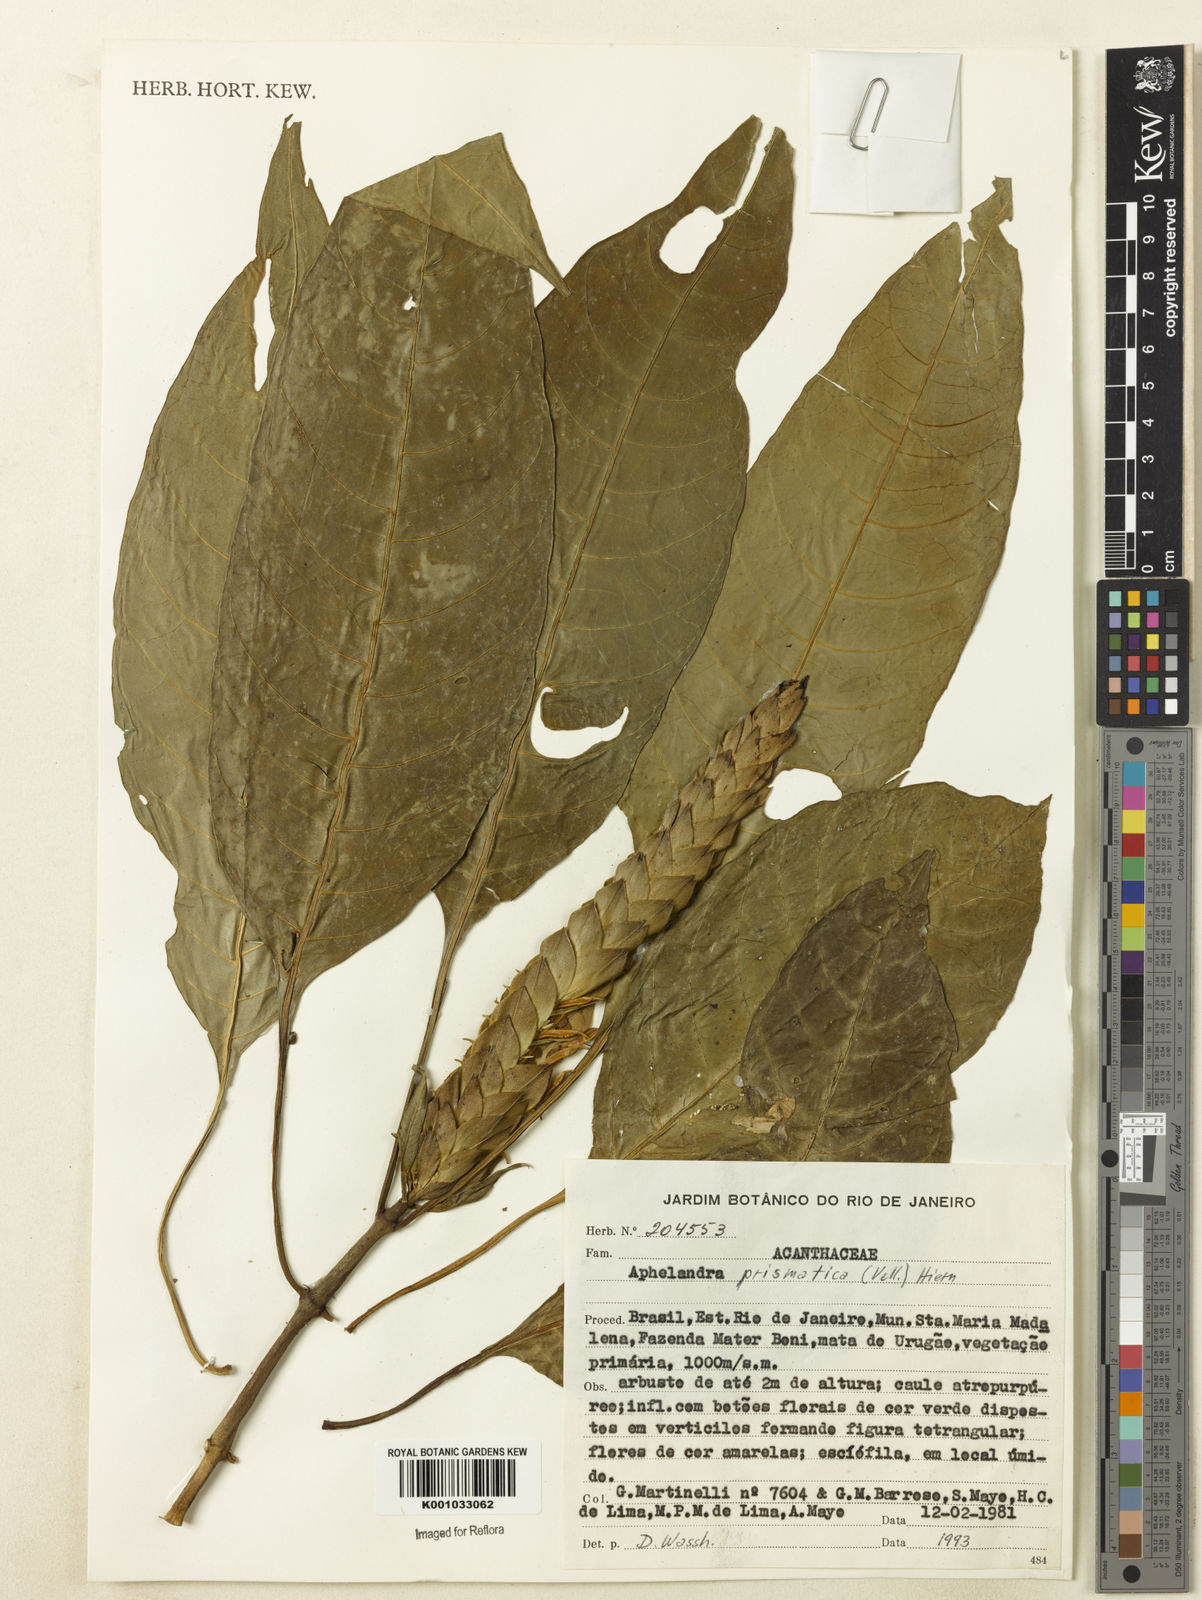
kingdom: Plantae
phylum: Tracheophyta
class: Magnoliopsida
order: Lamiales
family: Acanthaceae
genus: Aphelandra
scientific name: Aphelandra prismatica
